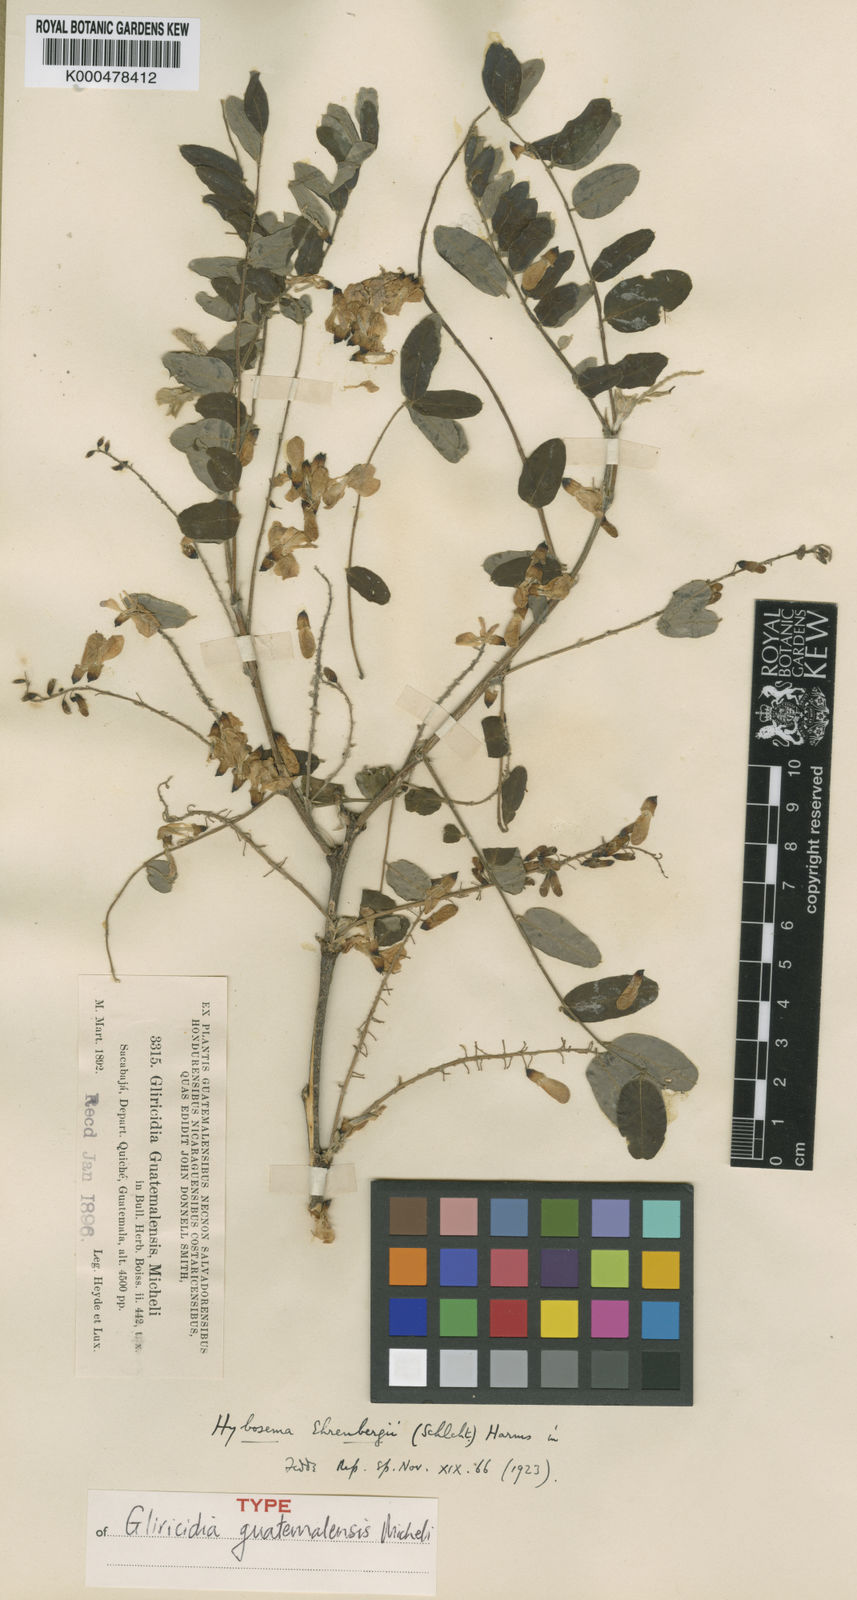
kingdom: Plantae
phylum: Tracheophyta
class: Magnoliopsida
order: Fabales
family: Fabaceae
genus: Gliricidia
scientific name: Gliricidia ehrenbergii
